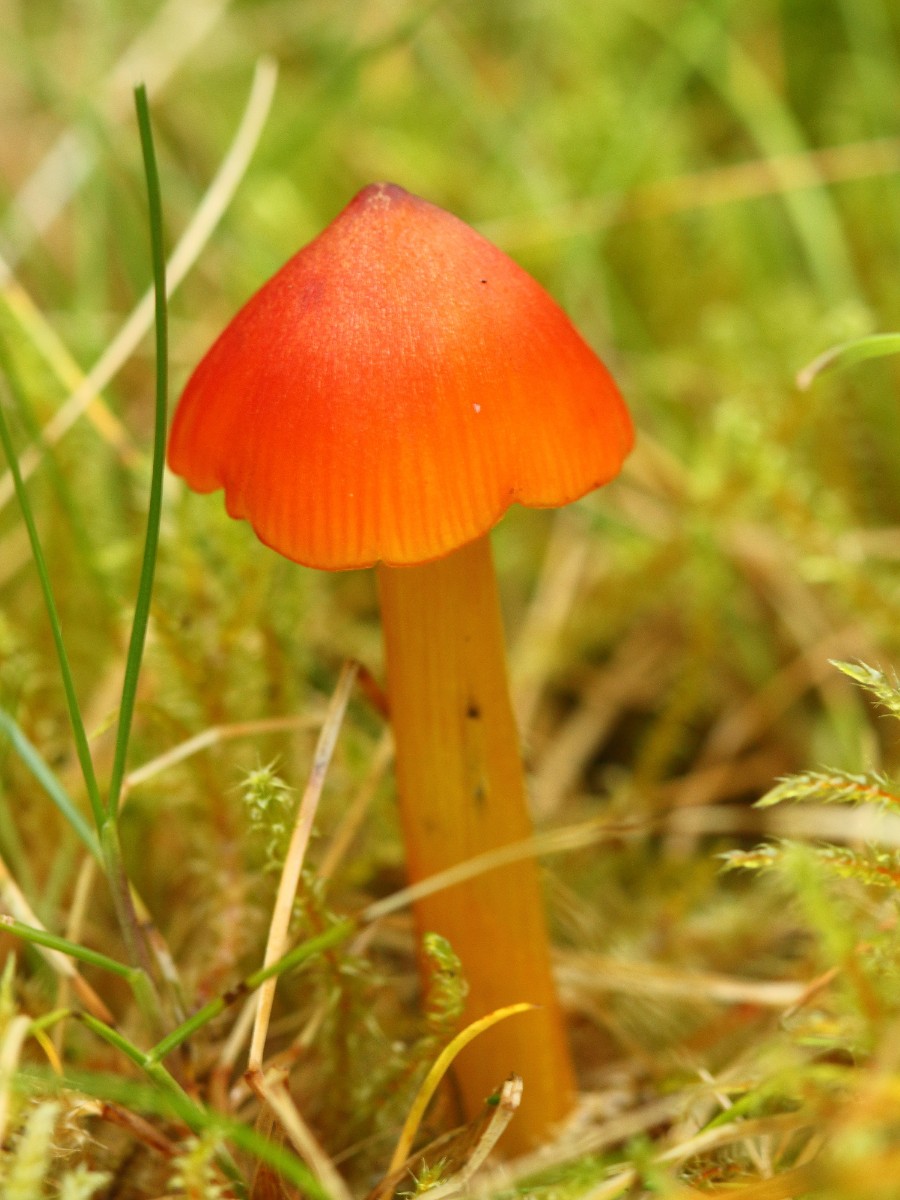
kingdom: Fungi
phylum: Basidiomycota
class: Agaricomycetes
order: Agaricales
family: Hygrophoraceae
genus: Hygrocybe
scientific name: Hygrocybe conica
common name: kegle-vokshat
